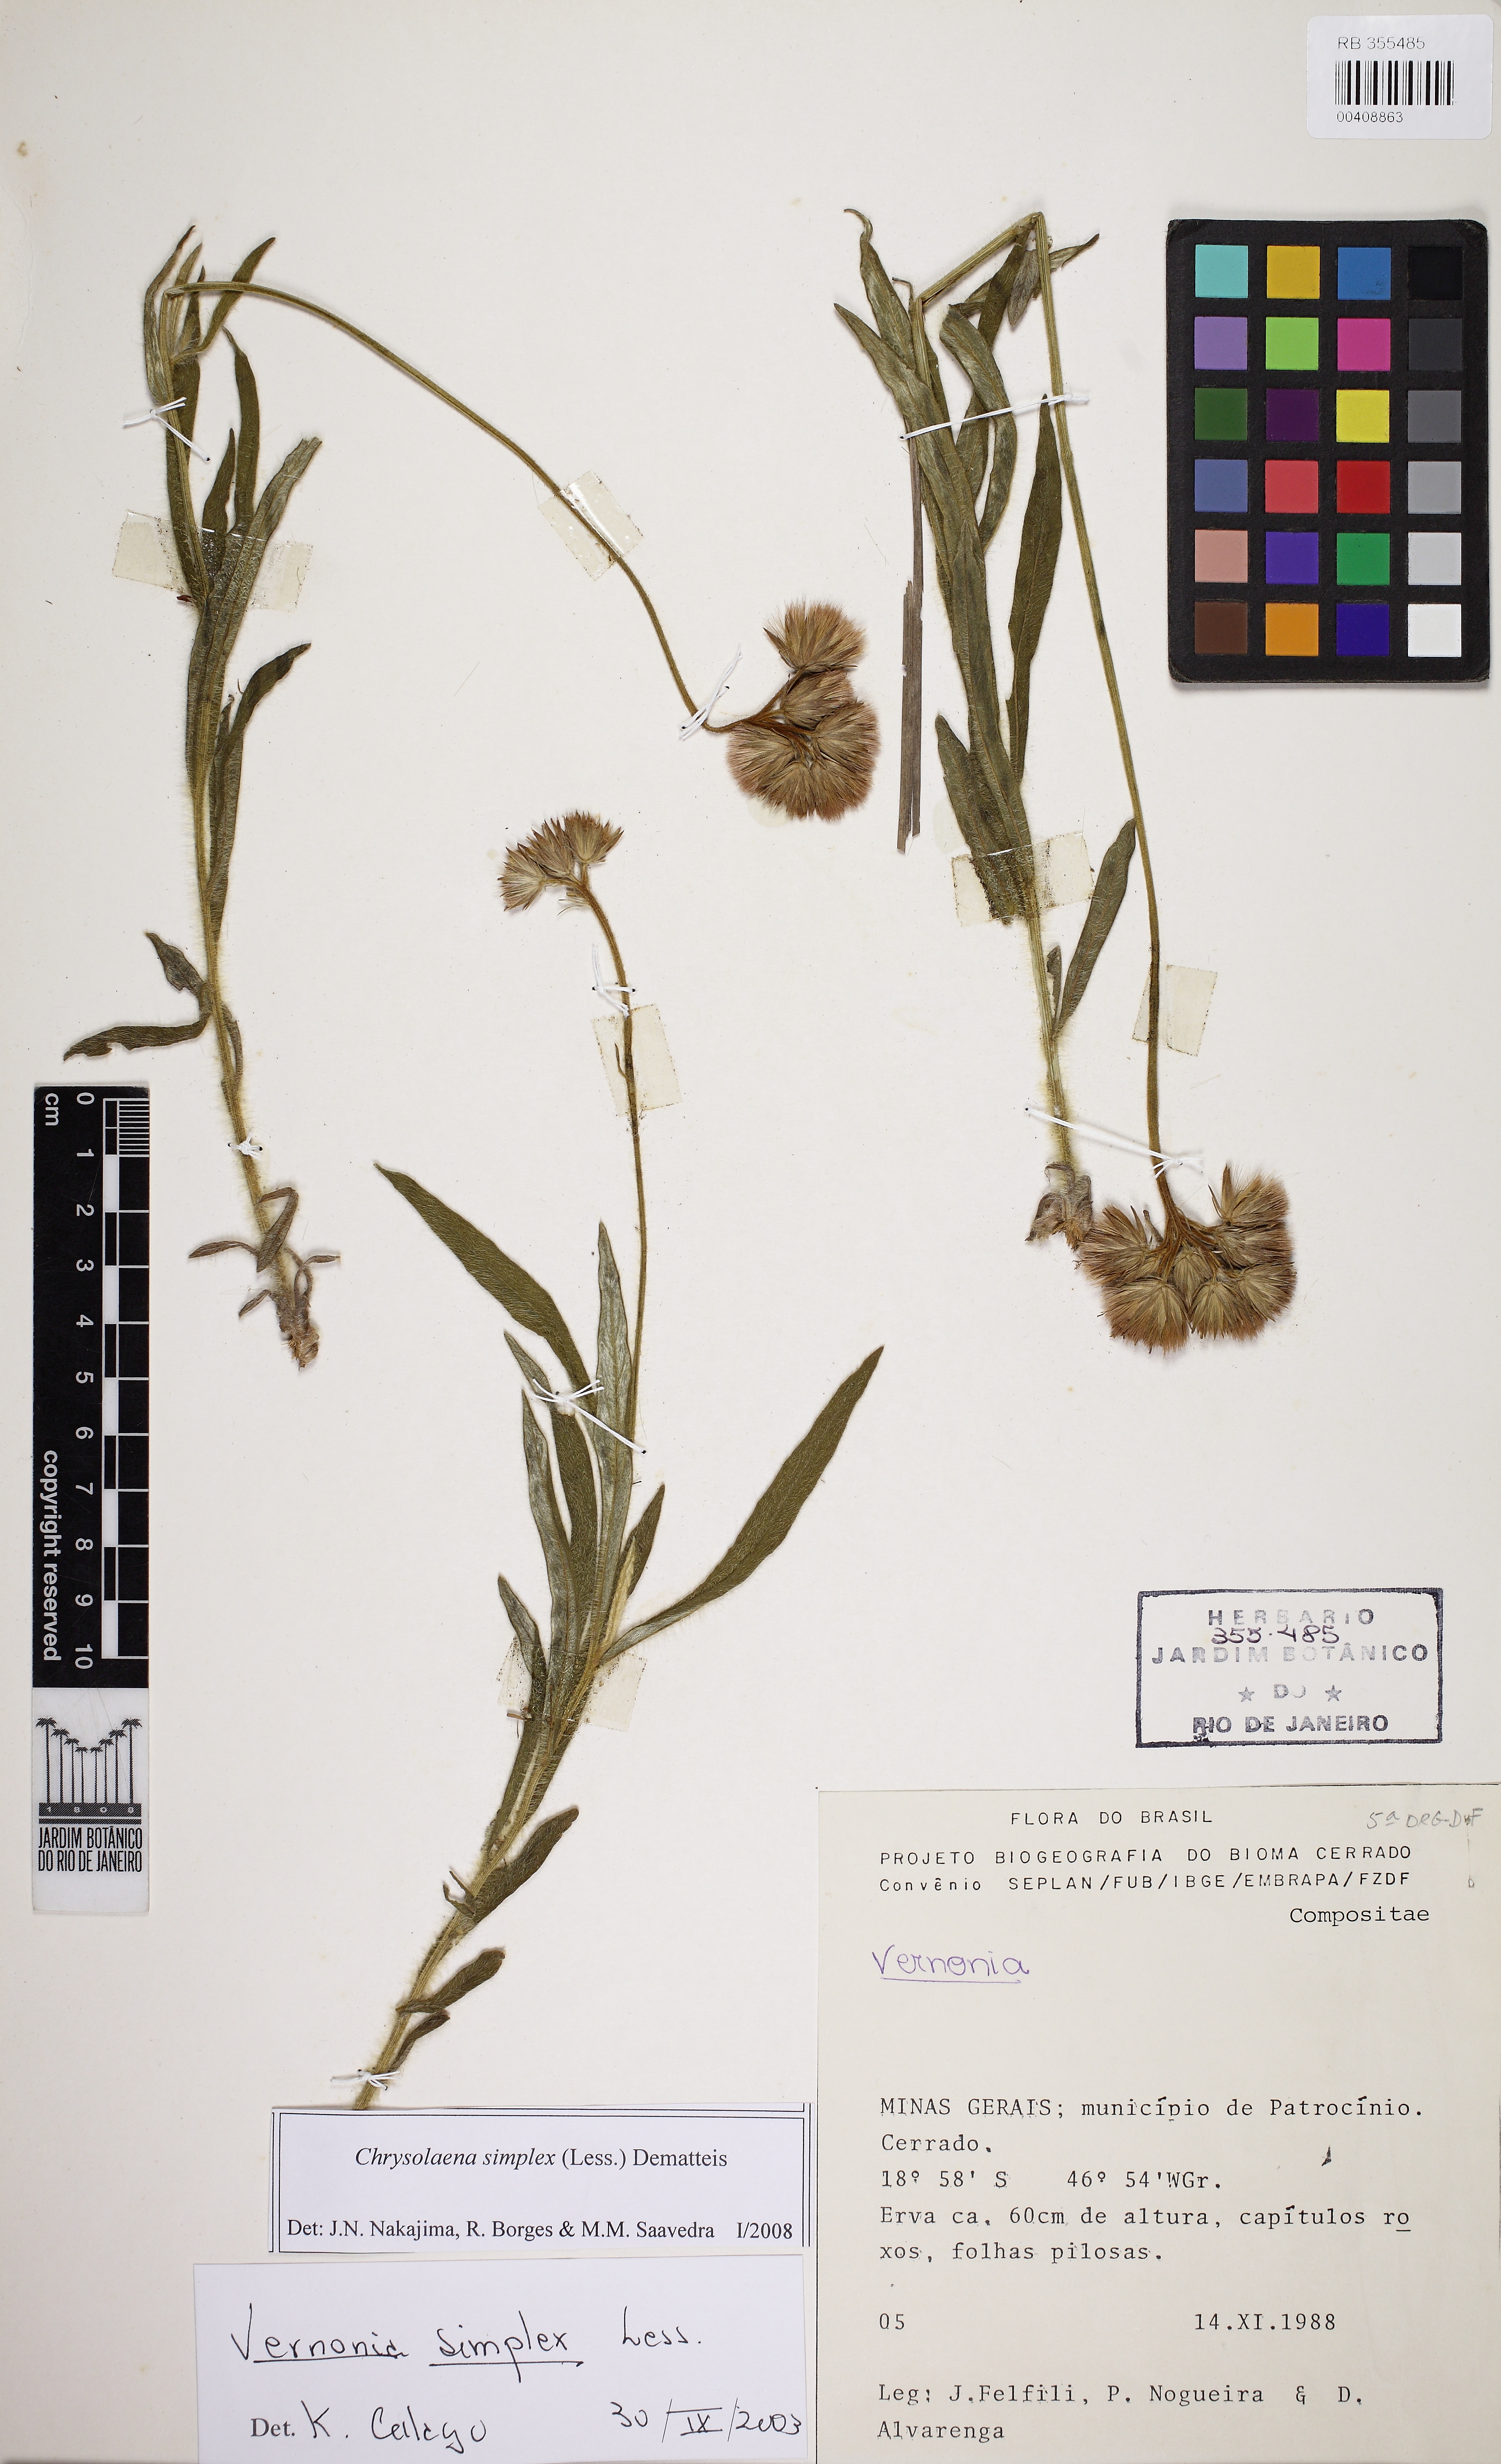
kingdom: Plantae
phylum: Tracheophyta
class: Magnoliopsida
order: Asterales
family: Asteraceae
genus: Chrysolaena
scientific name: Chrysolaena simplex
